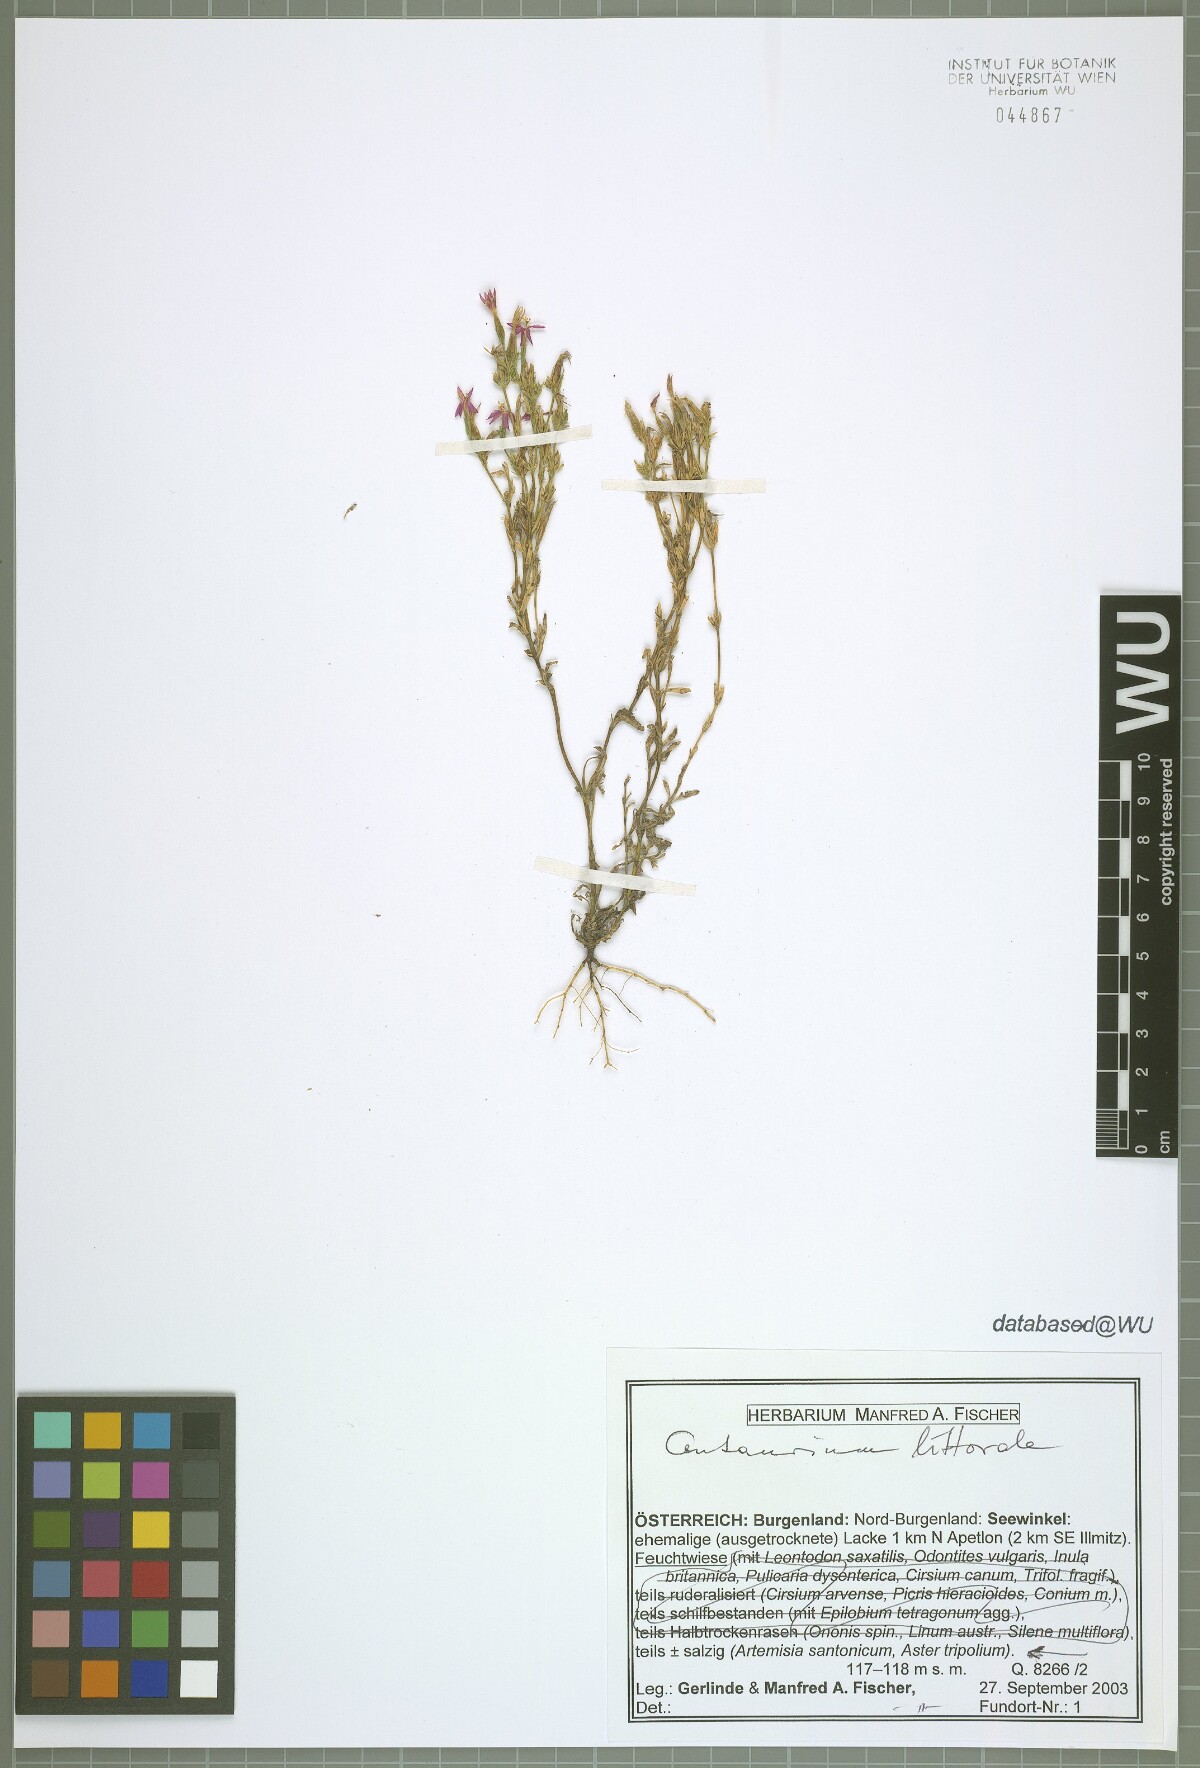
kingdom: Plantae
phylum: Tracheophyta
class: Magnoliopsida
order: Gentianales
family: Gentianaceae
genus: Centaurium
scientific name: Centaurium littorale
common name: Seaside centaury
